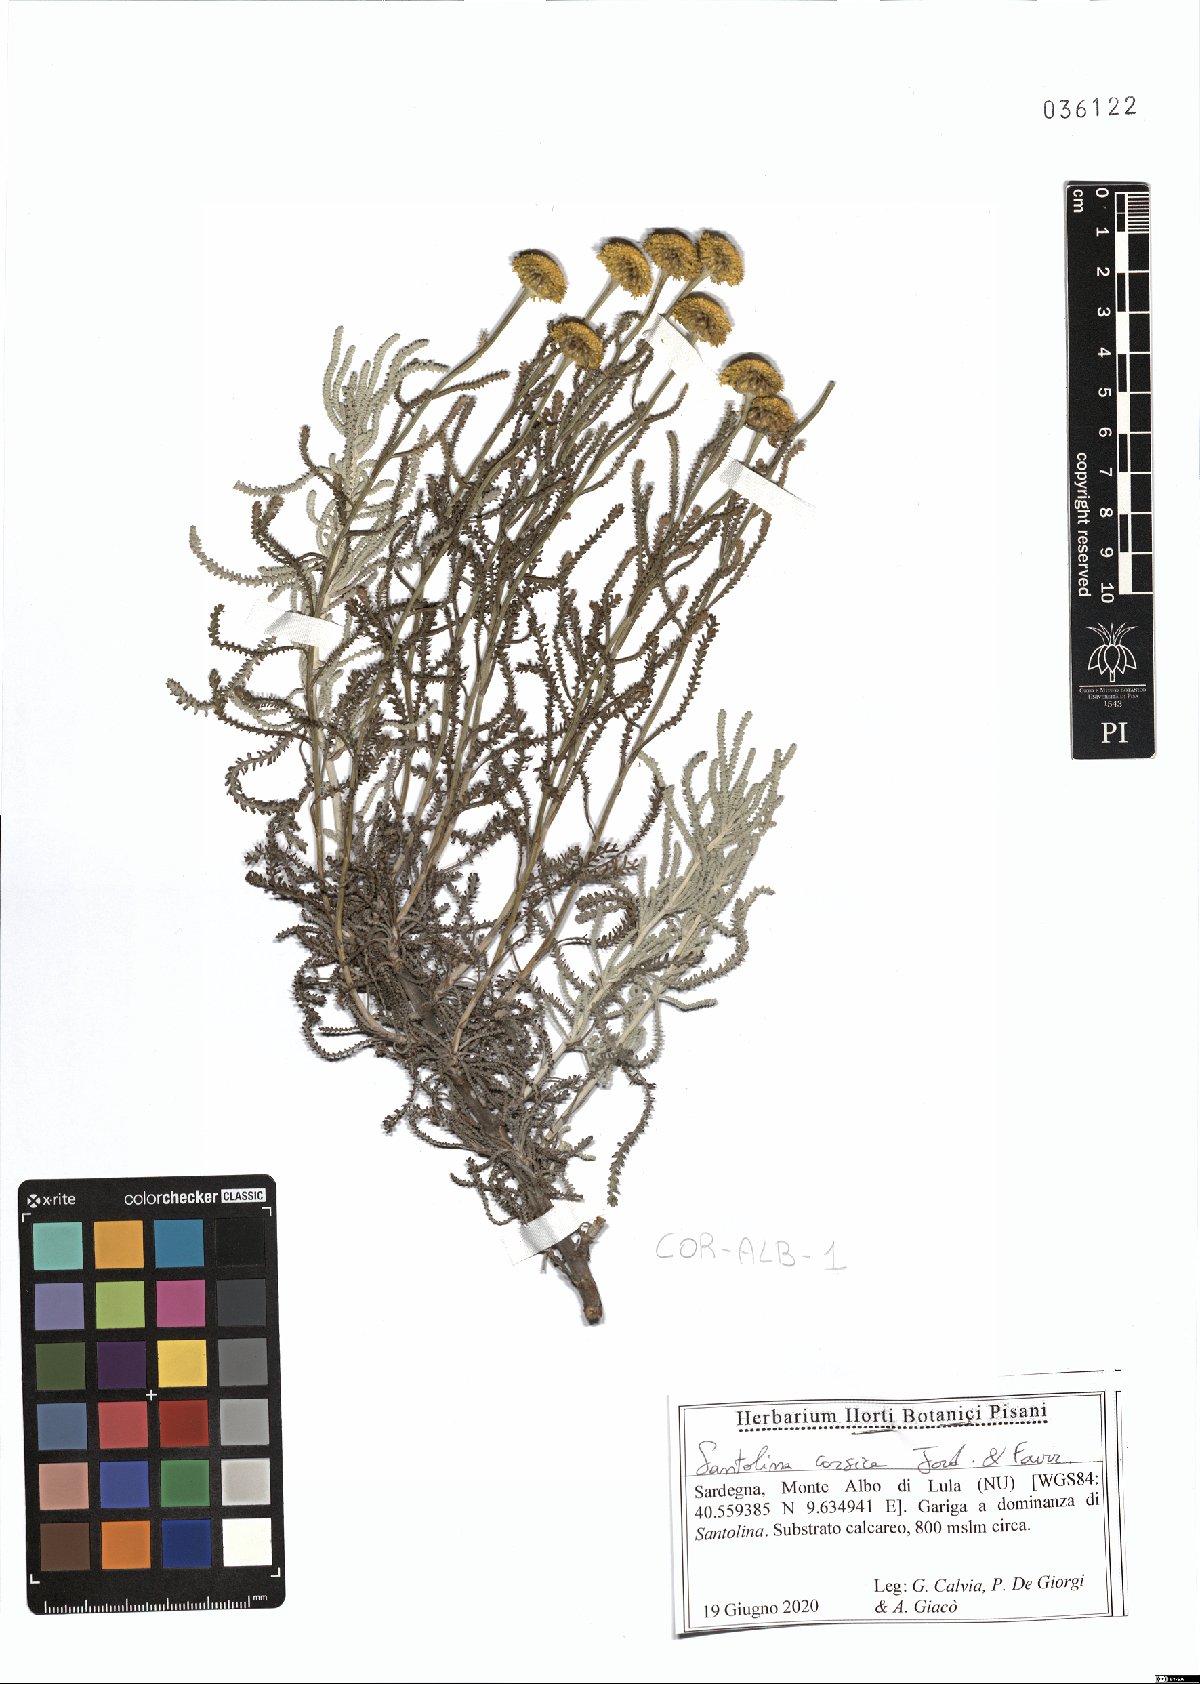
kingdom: Plantae
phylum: Tracheophyta
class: Magnoliopsida
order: Asterales
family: Asteraceae
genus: Santolina
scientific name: Santolina corsica
